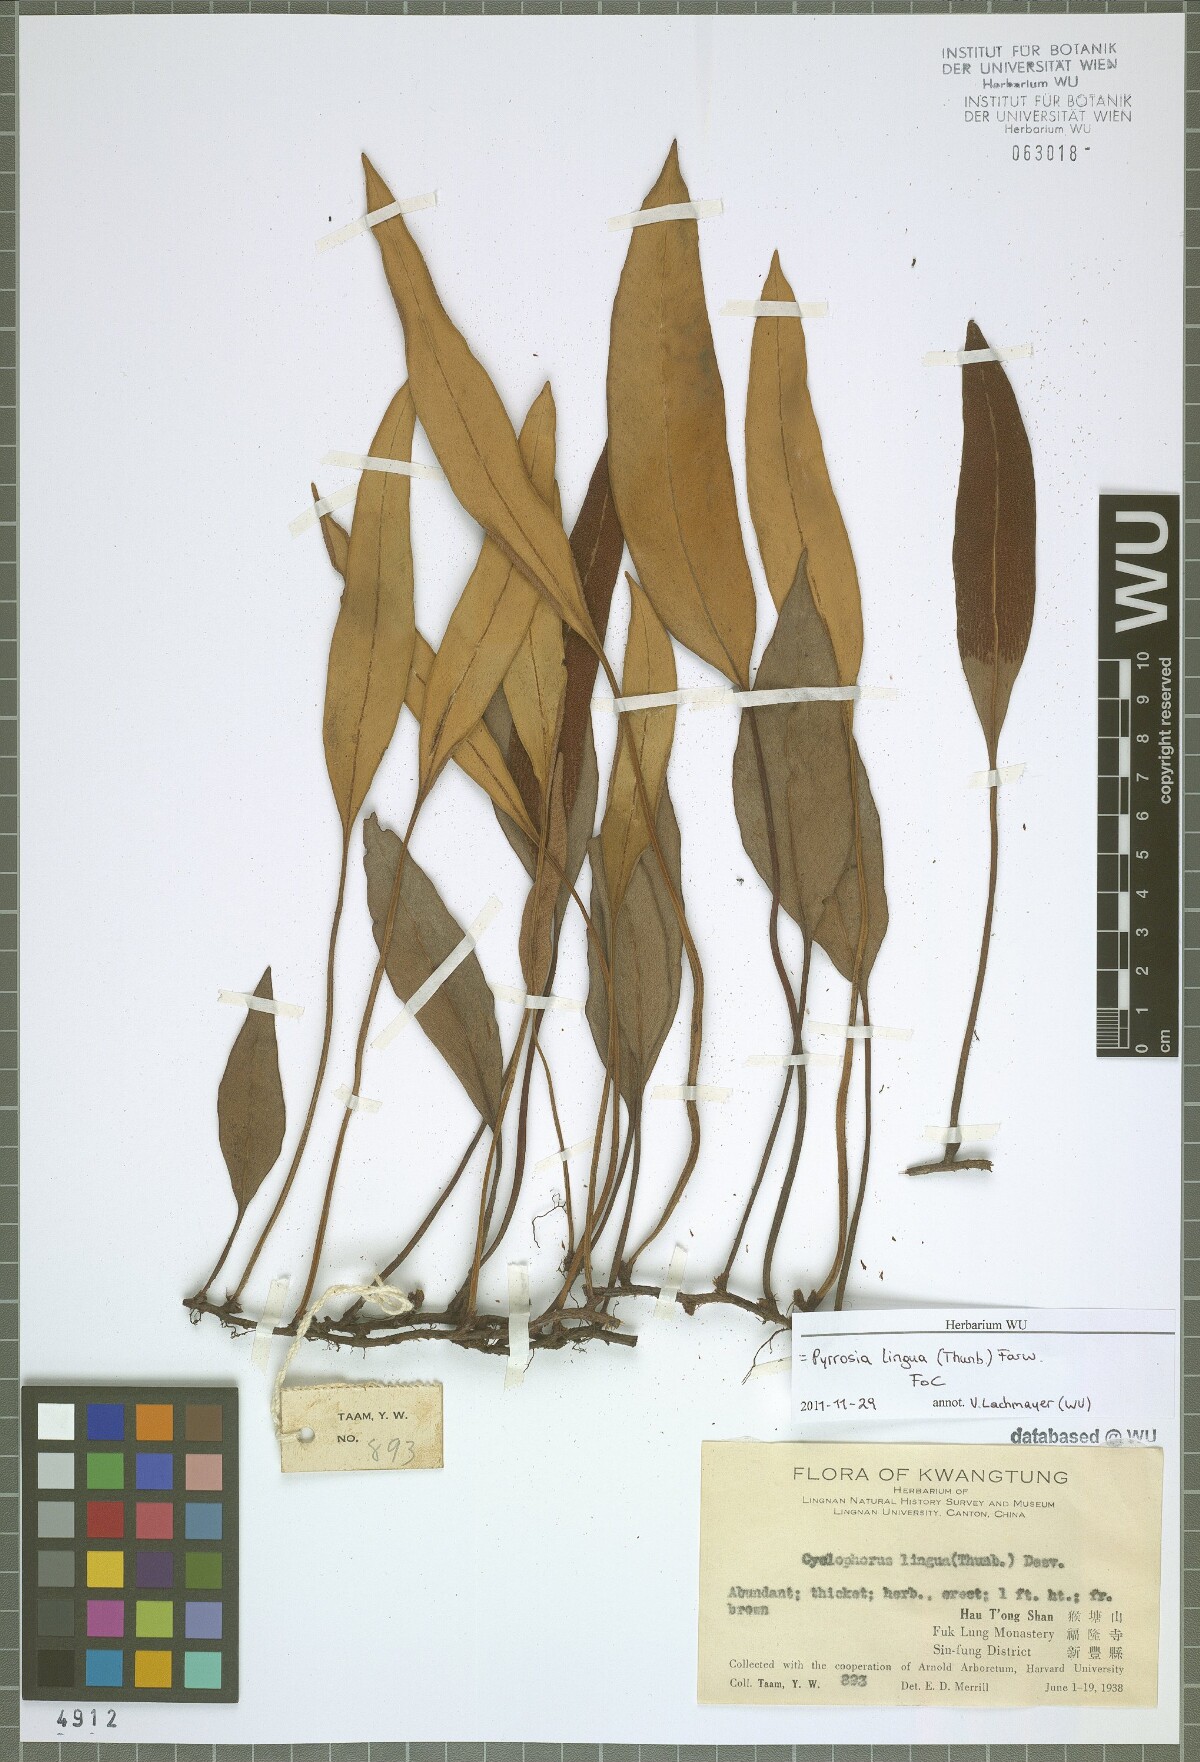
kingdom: Plantae
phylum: Tracheophyta
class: Polypodiopsida
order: Polypodiales
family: Polypodiaceae
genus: Pyrrosia
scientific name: Pyrrosia lingua
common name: Felt fern
